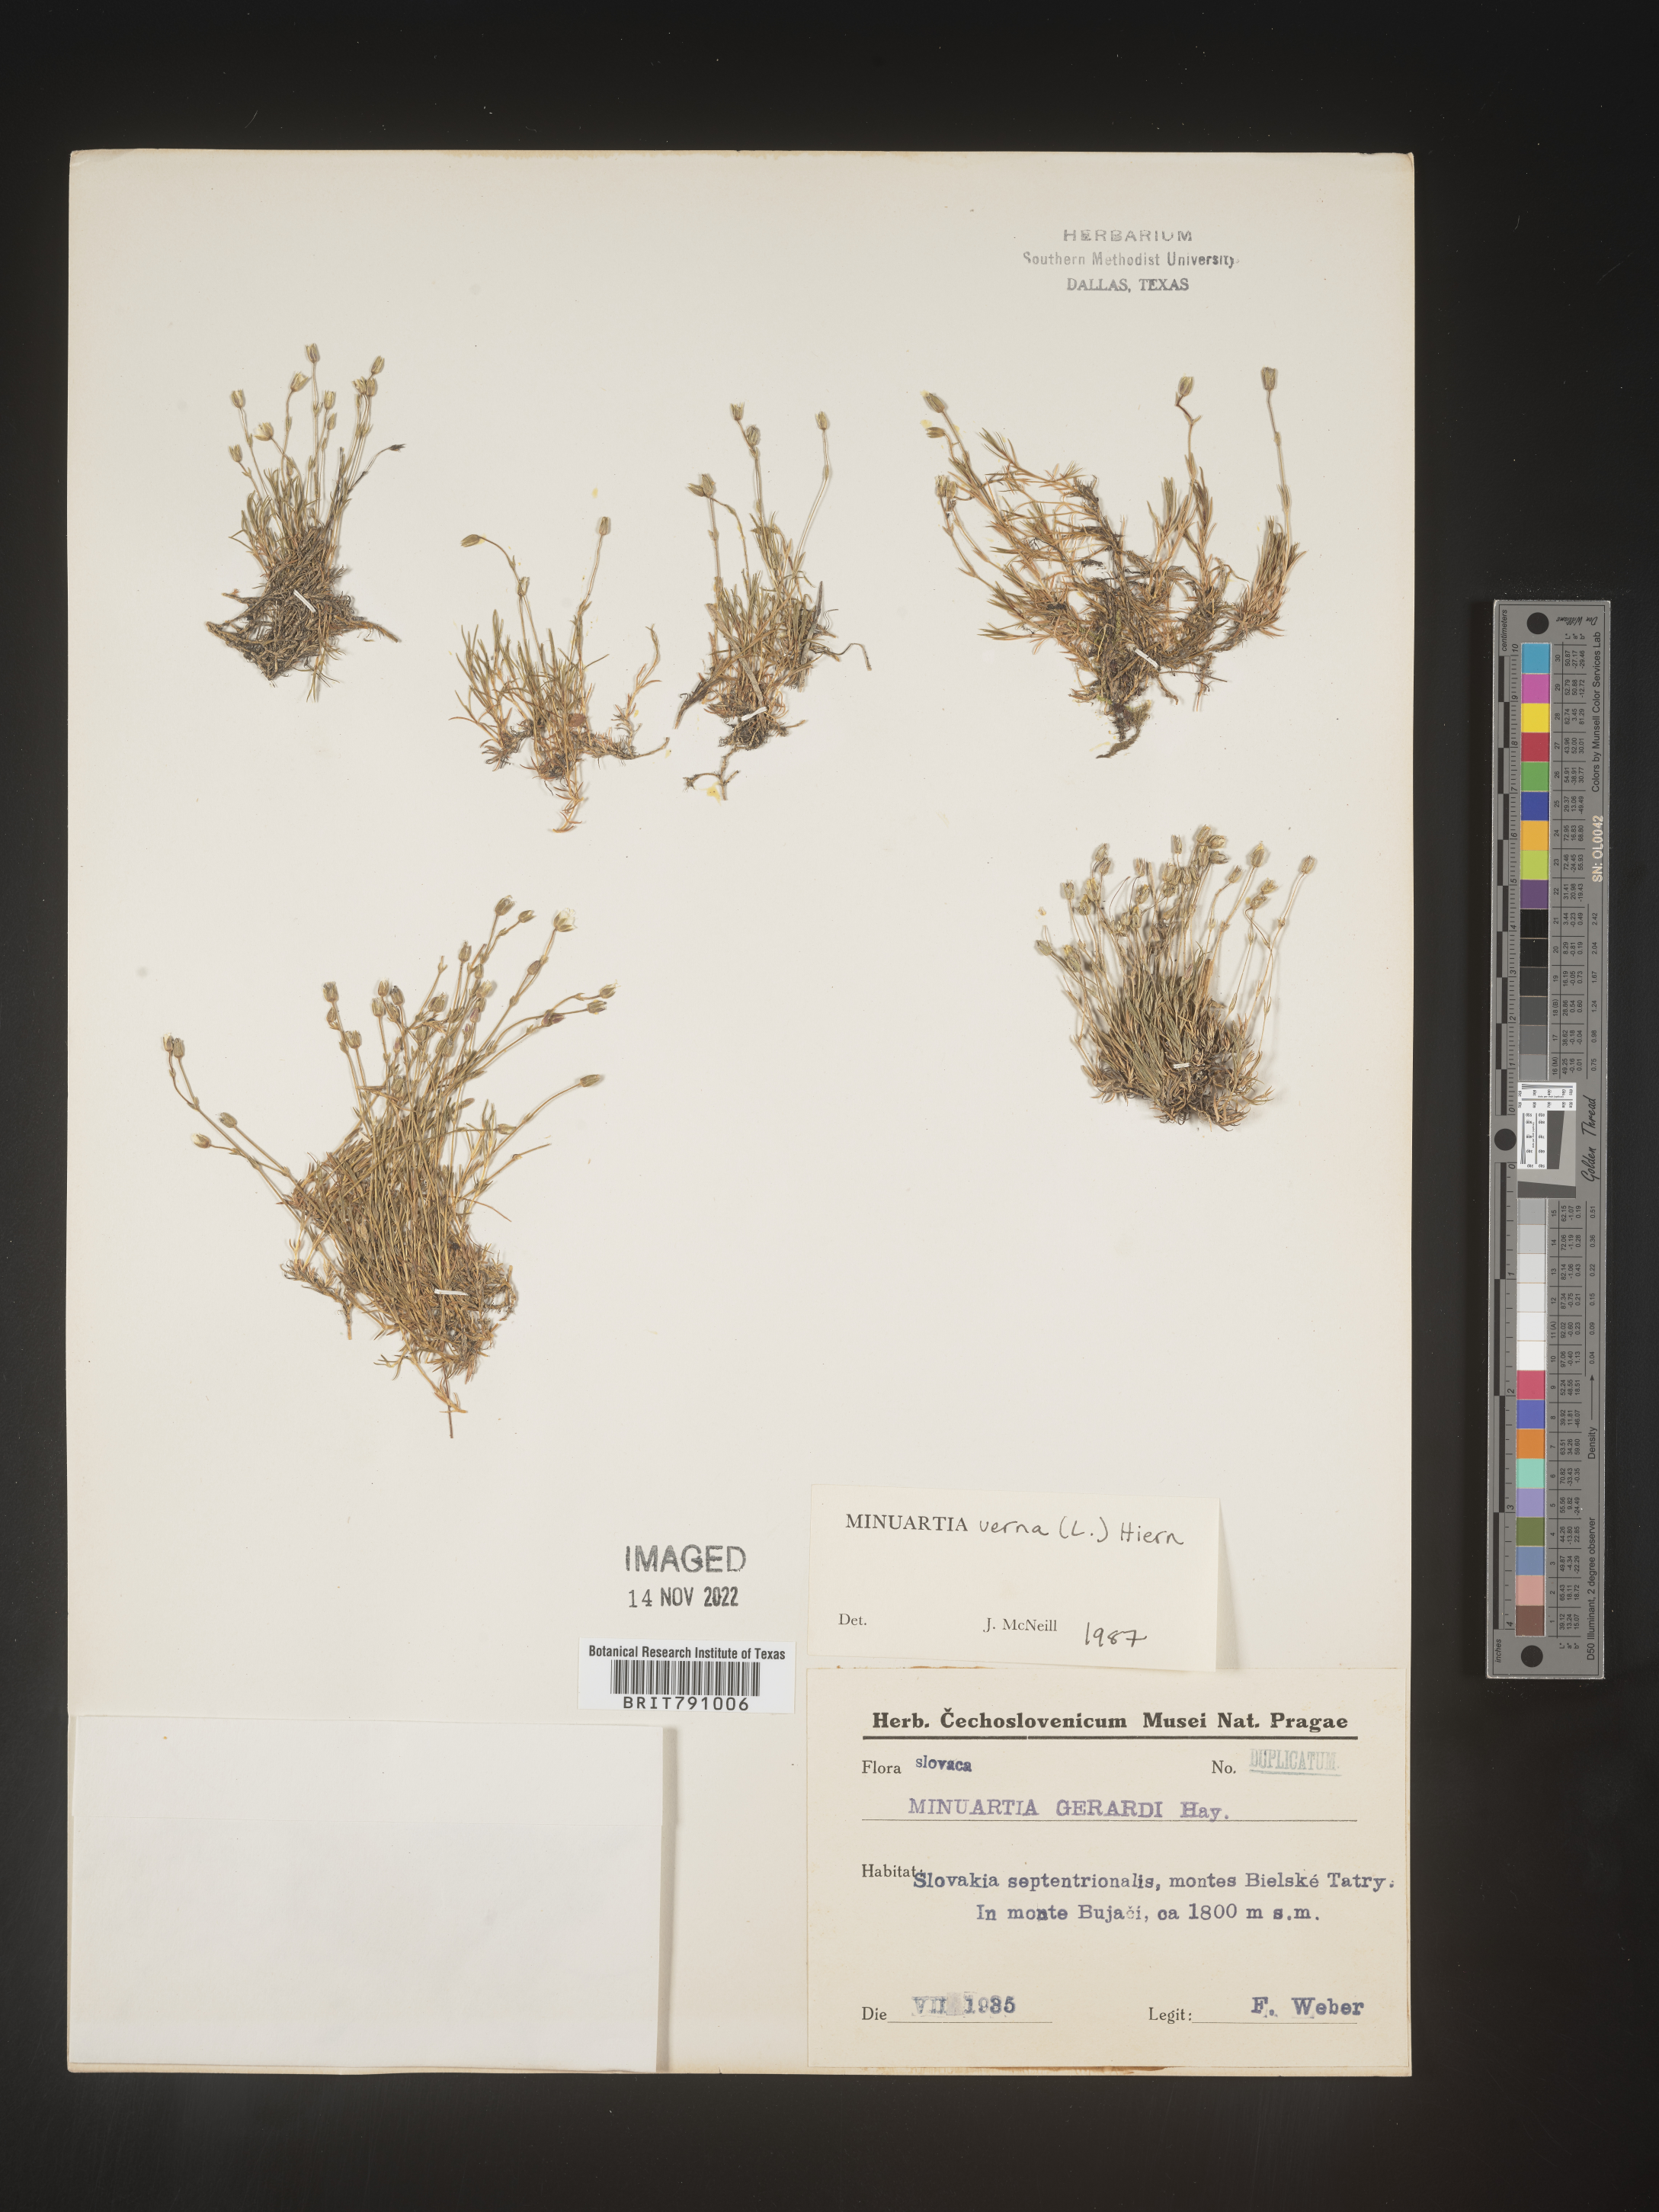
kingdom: Plantae
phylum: Tracheophyta
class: Magnoliopsida
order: Caryophyllales
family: Caryophyllaceae
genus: Minuartia
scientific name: Minuartia
